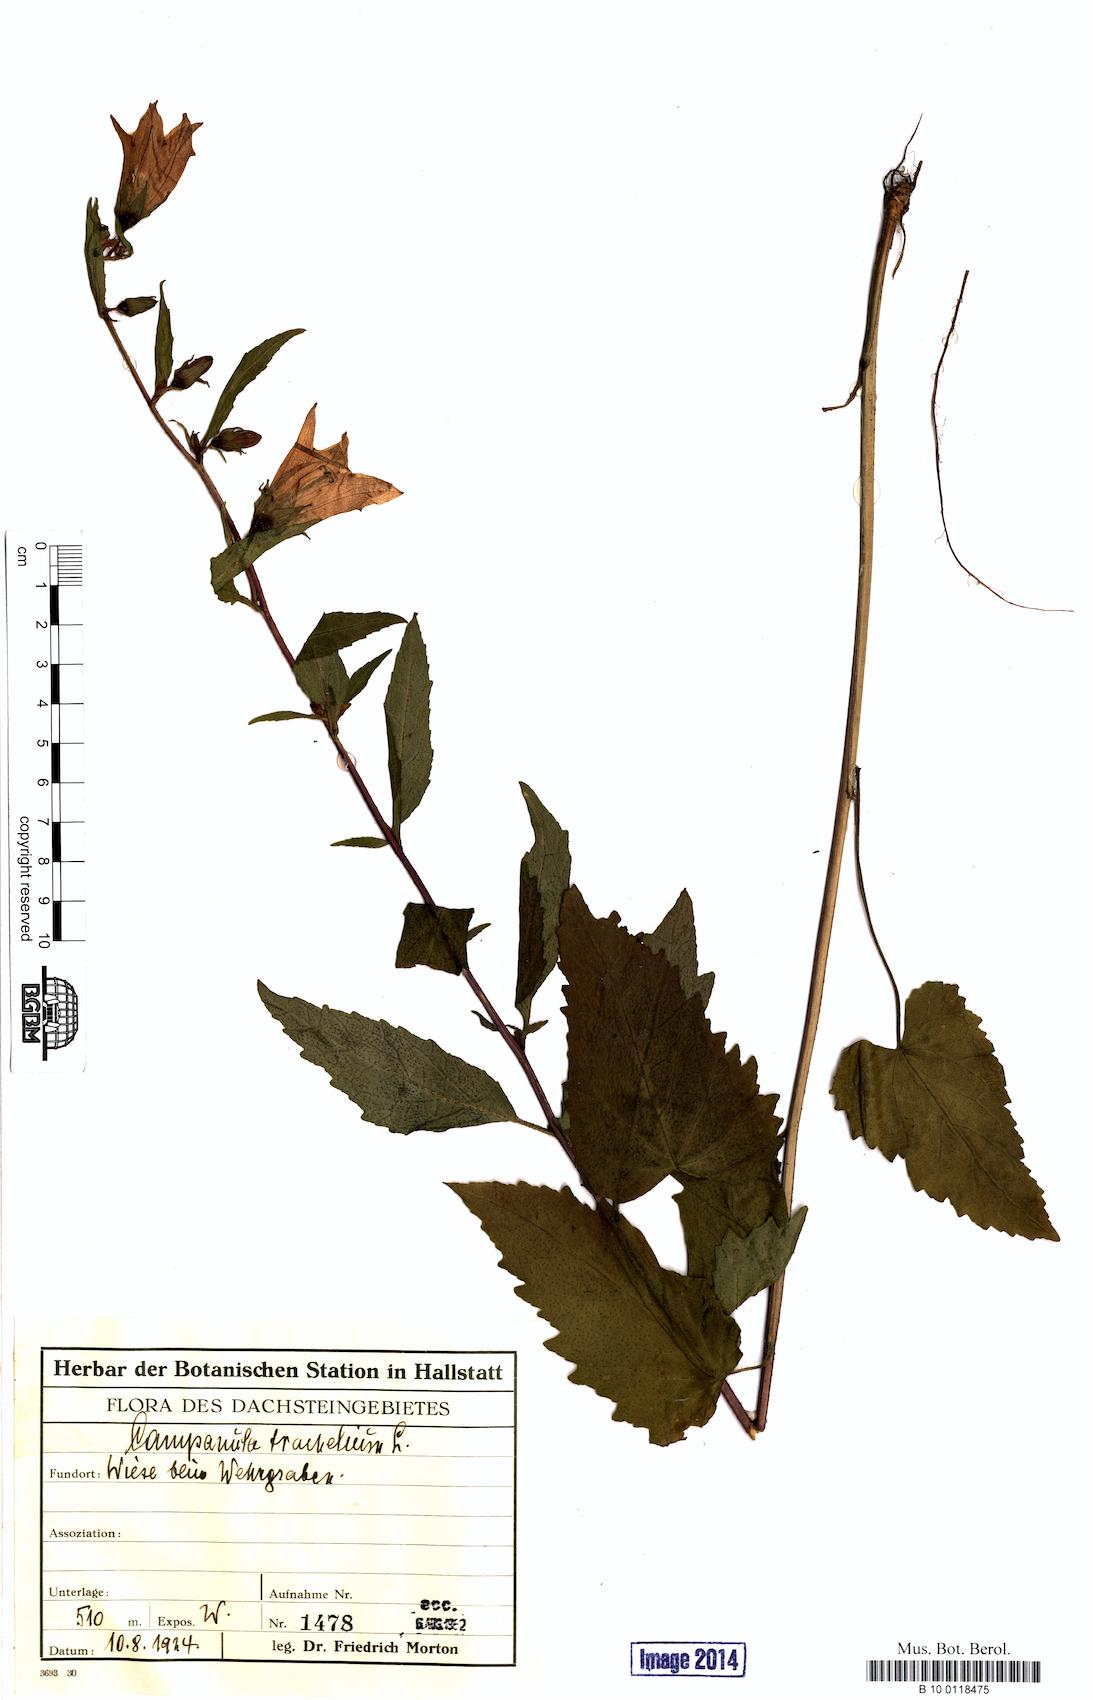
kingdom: Plantae
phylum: Tracheophyta
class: Magnoliopsida
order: Asterales
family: Campanulaceae
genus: Campanula
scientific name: Campanula trachelium
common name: Nettle-leaved bellflower
